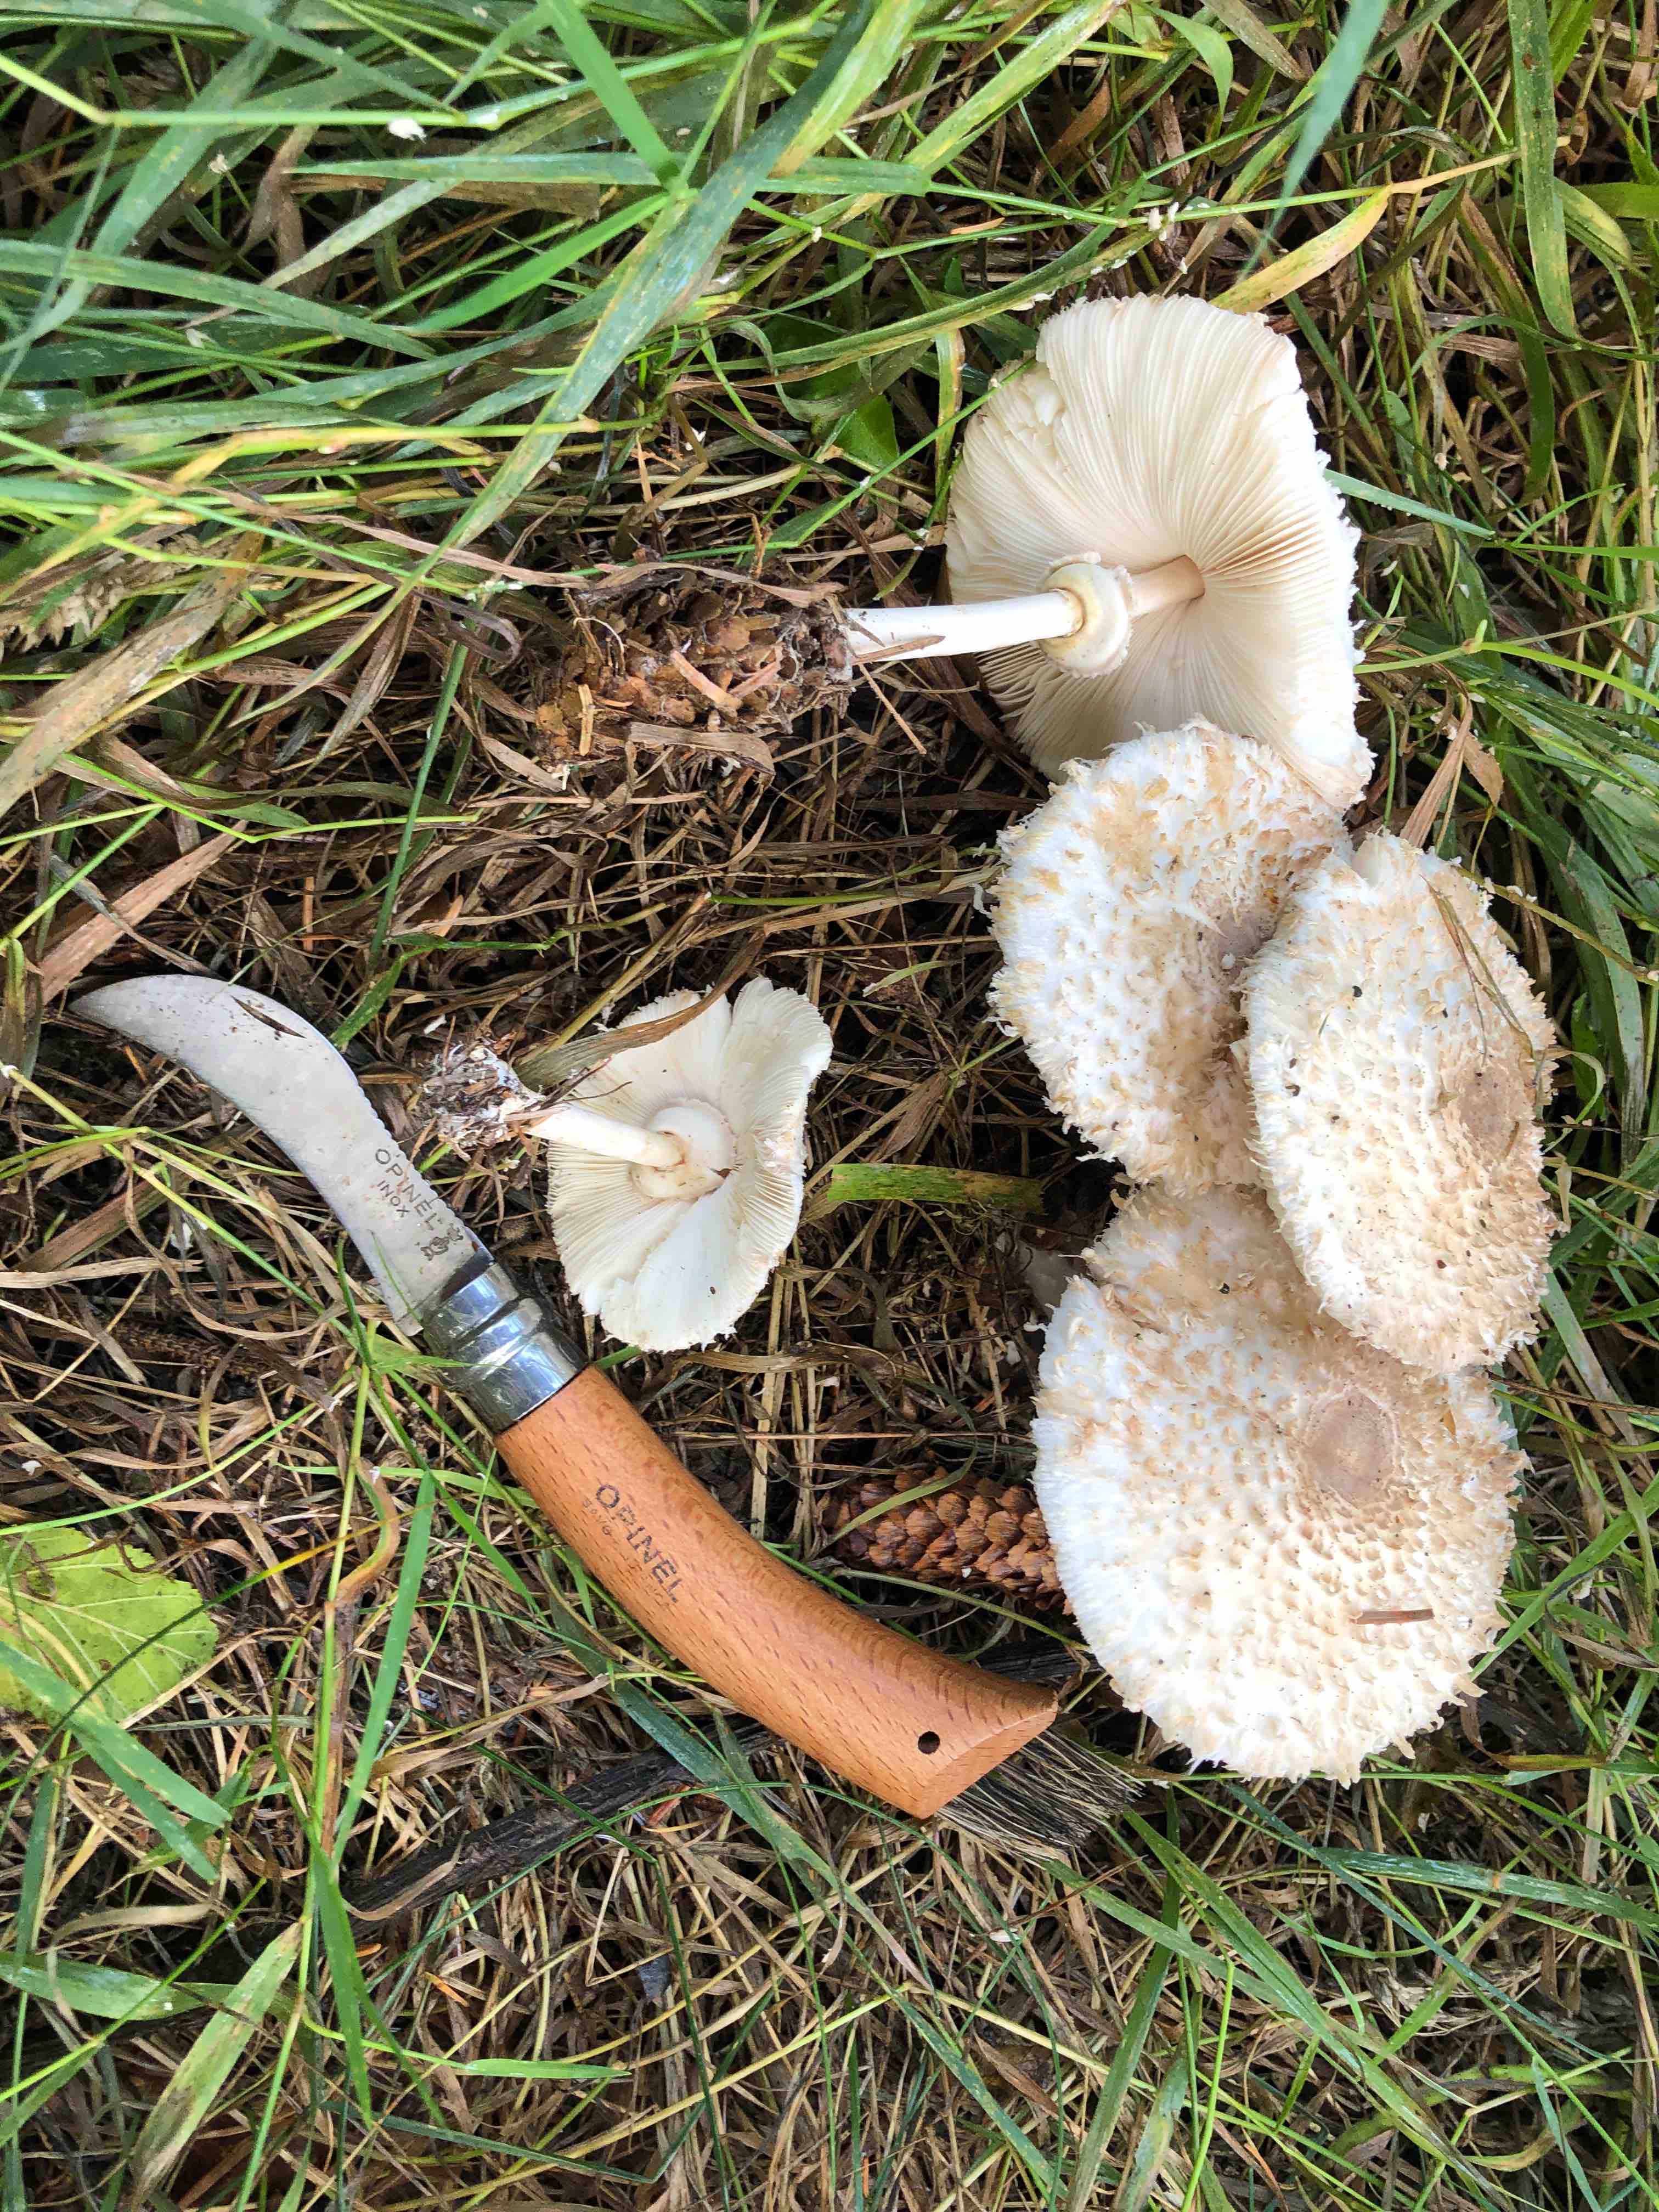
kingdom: Fungi
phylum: Basidiomycota
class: Agaricomycetes
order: Agaricales
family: Agaricaceae
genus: Leucoagaricus
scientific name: Leucoagaricus nympharum
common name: gran-silkehat
